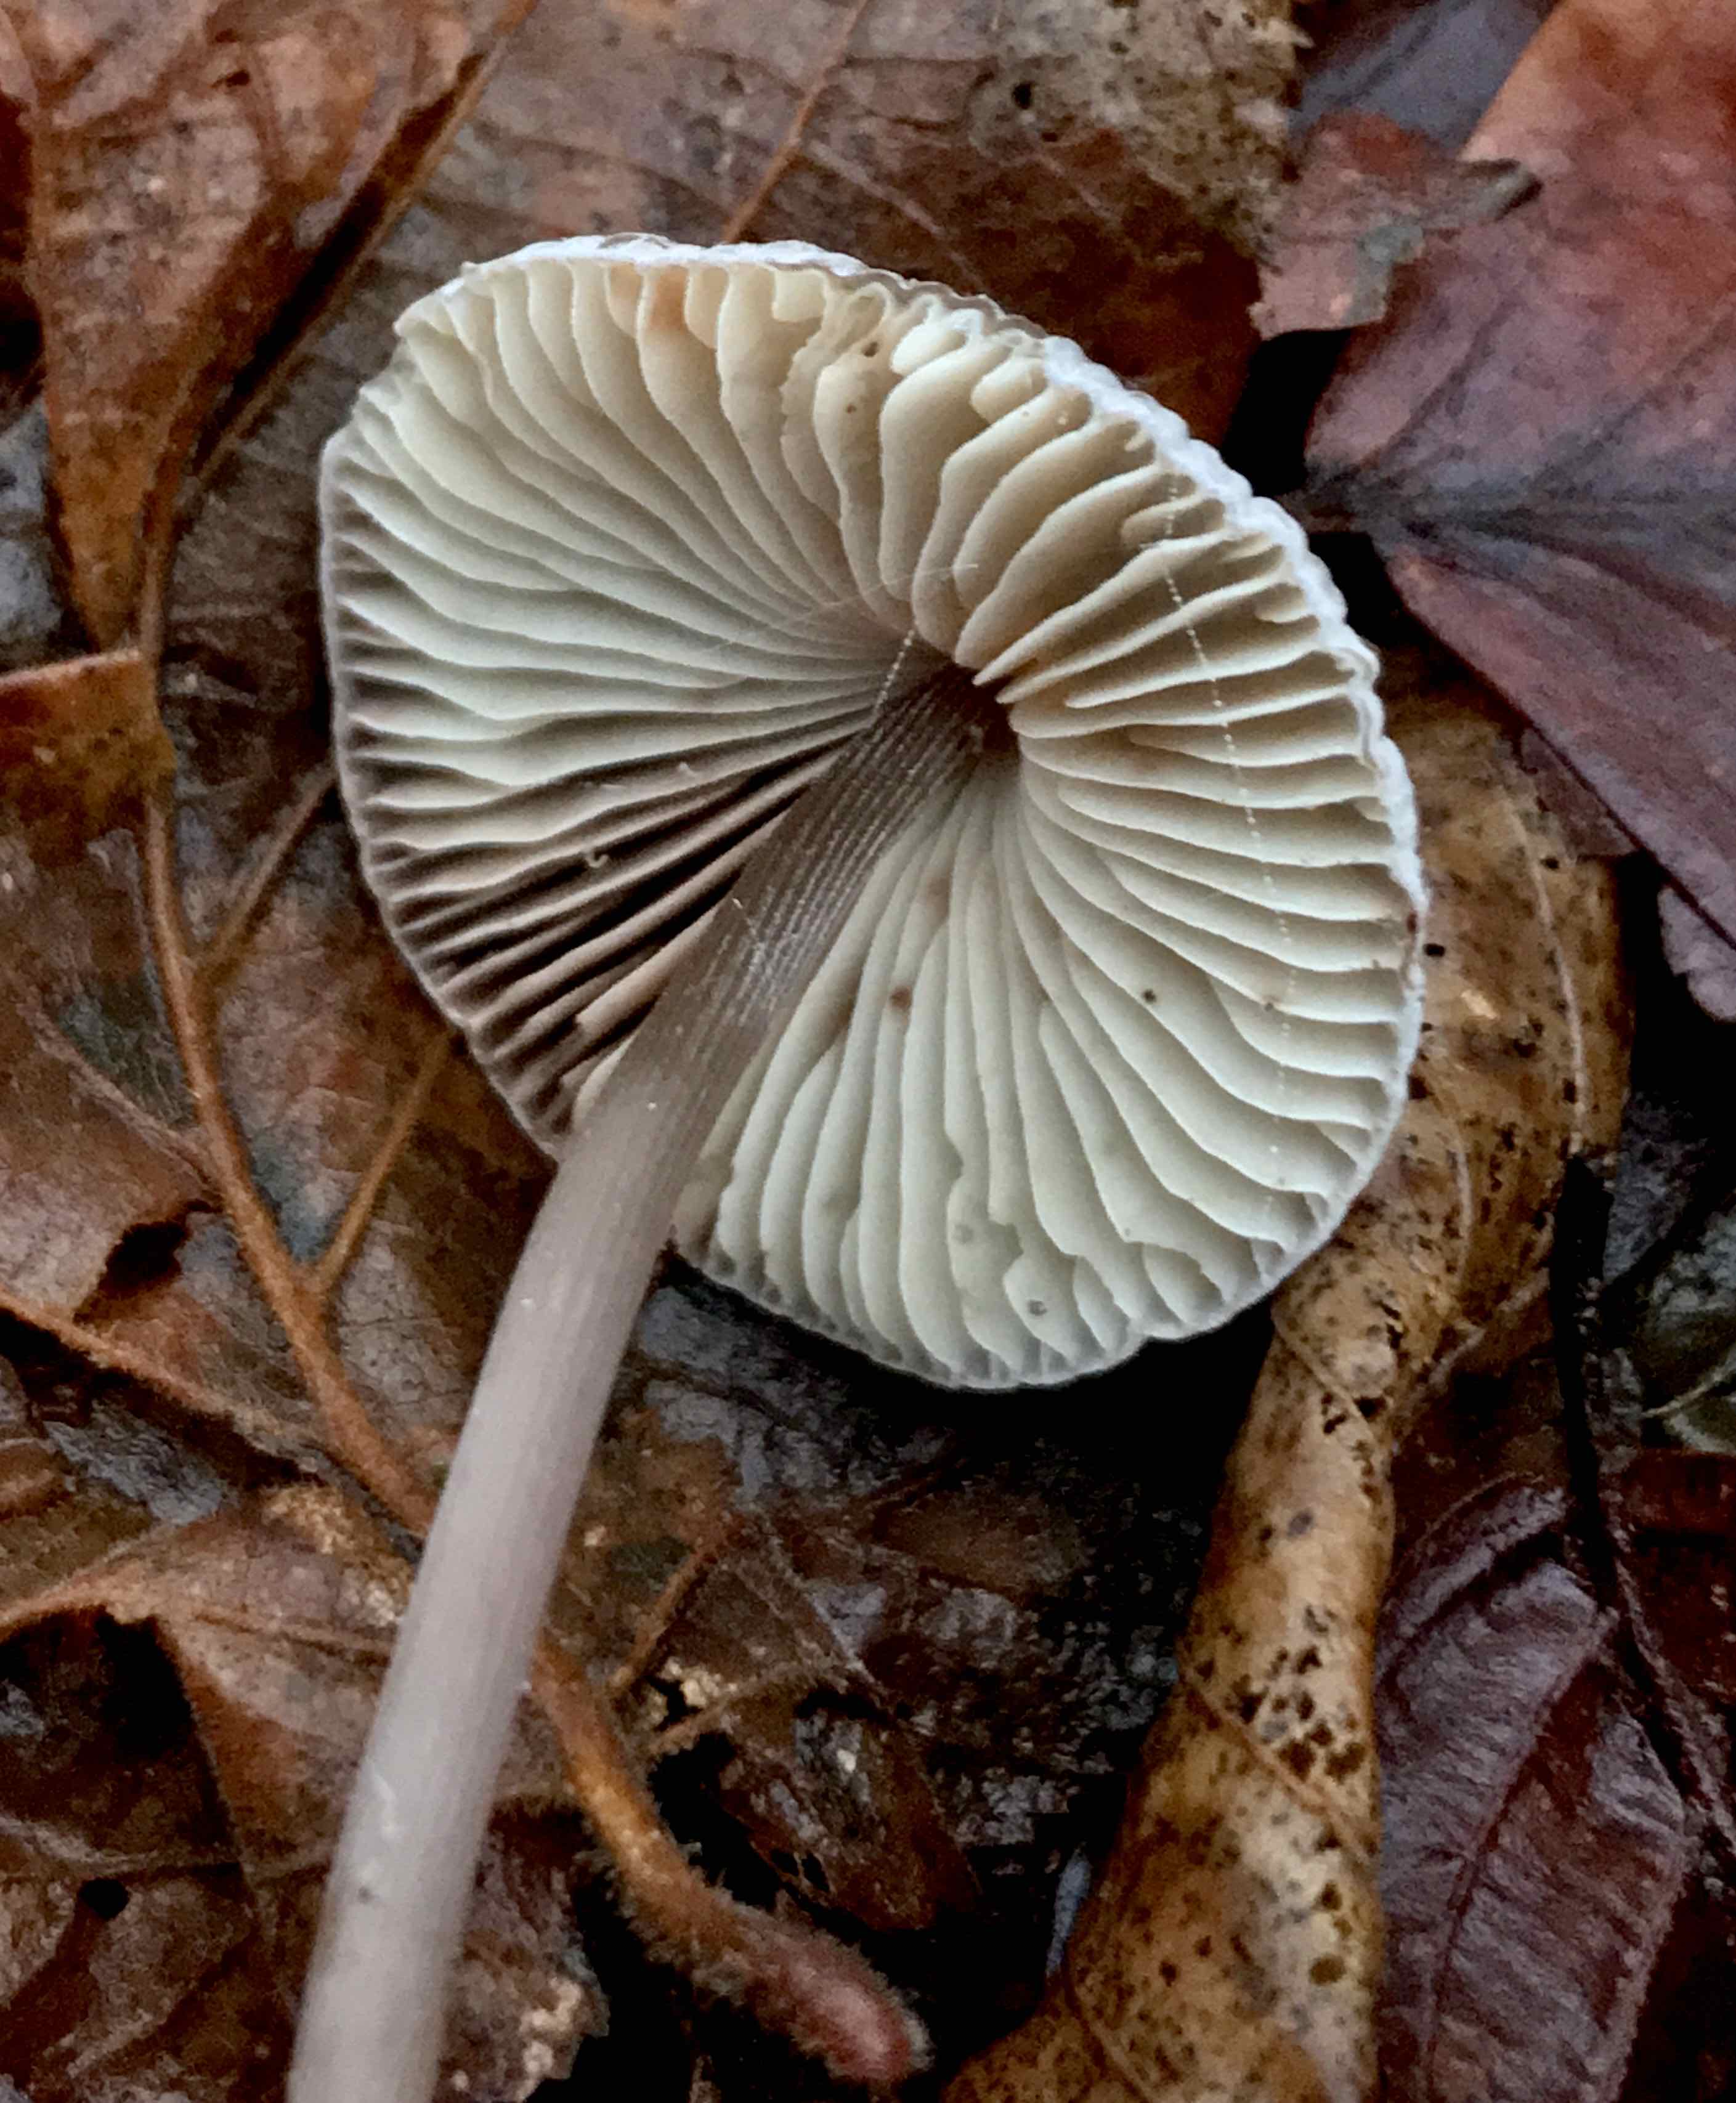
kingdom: Fungi
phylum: Basidiomycota
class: Agaricomycetes
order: Agaricales
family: Mycenaceae
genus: Mycena
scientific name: Mycena polygramma
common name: mangestribet huesvamp
